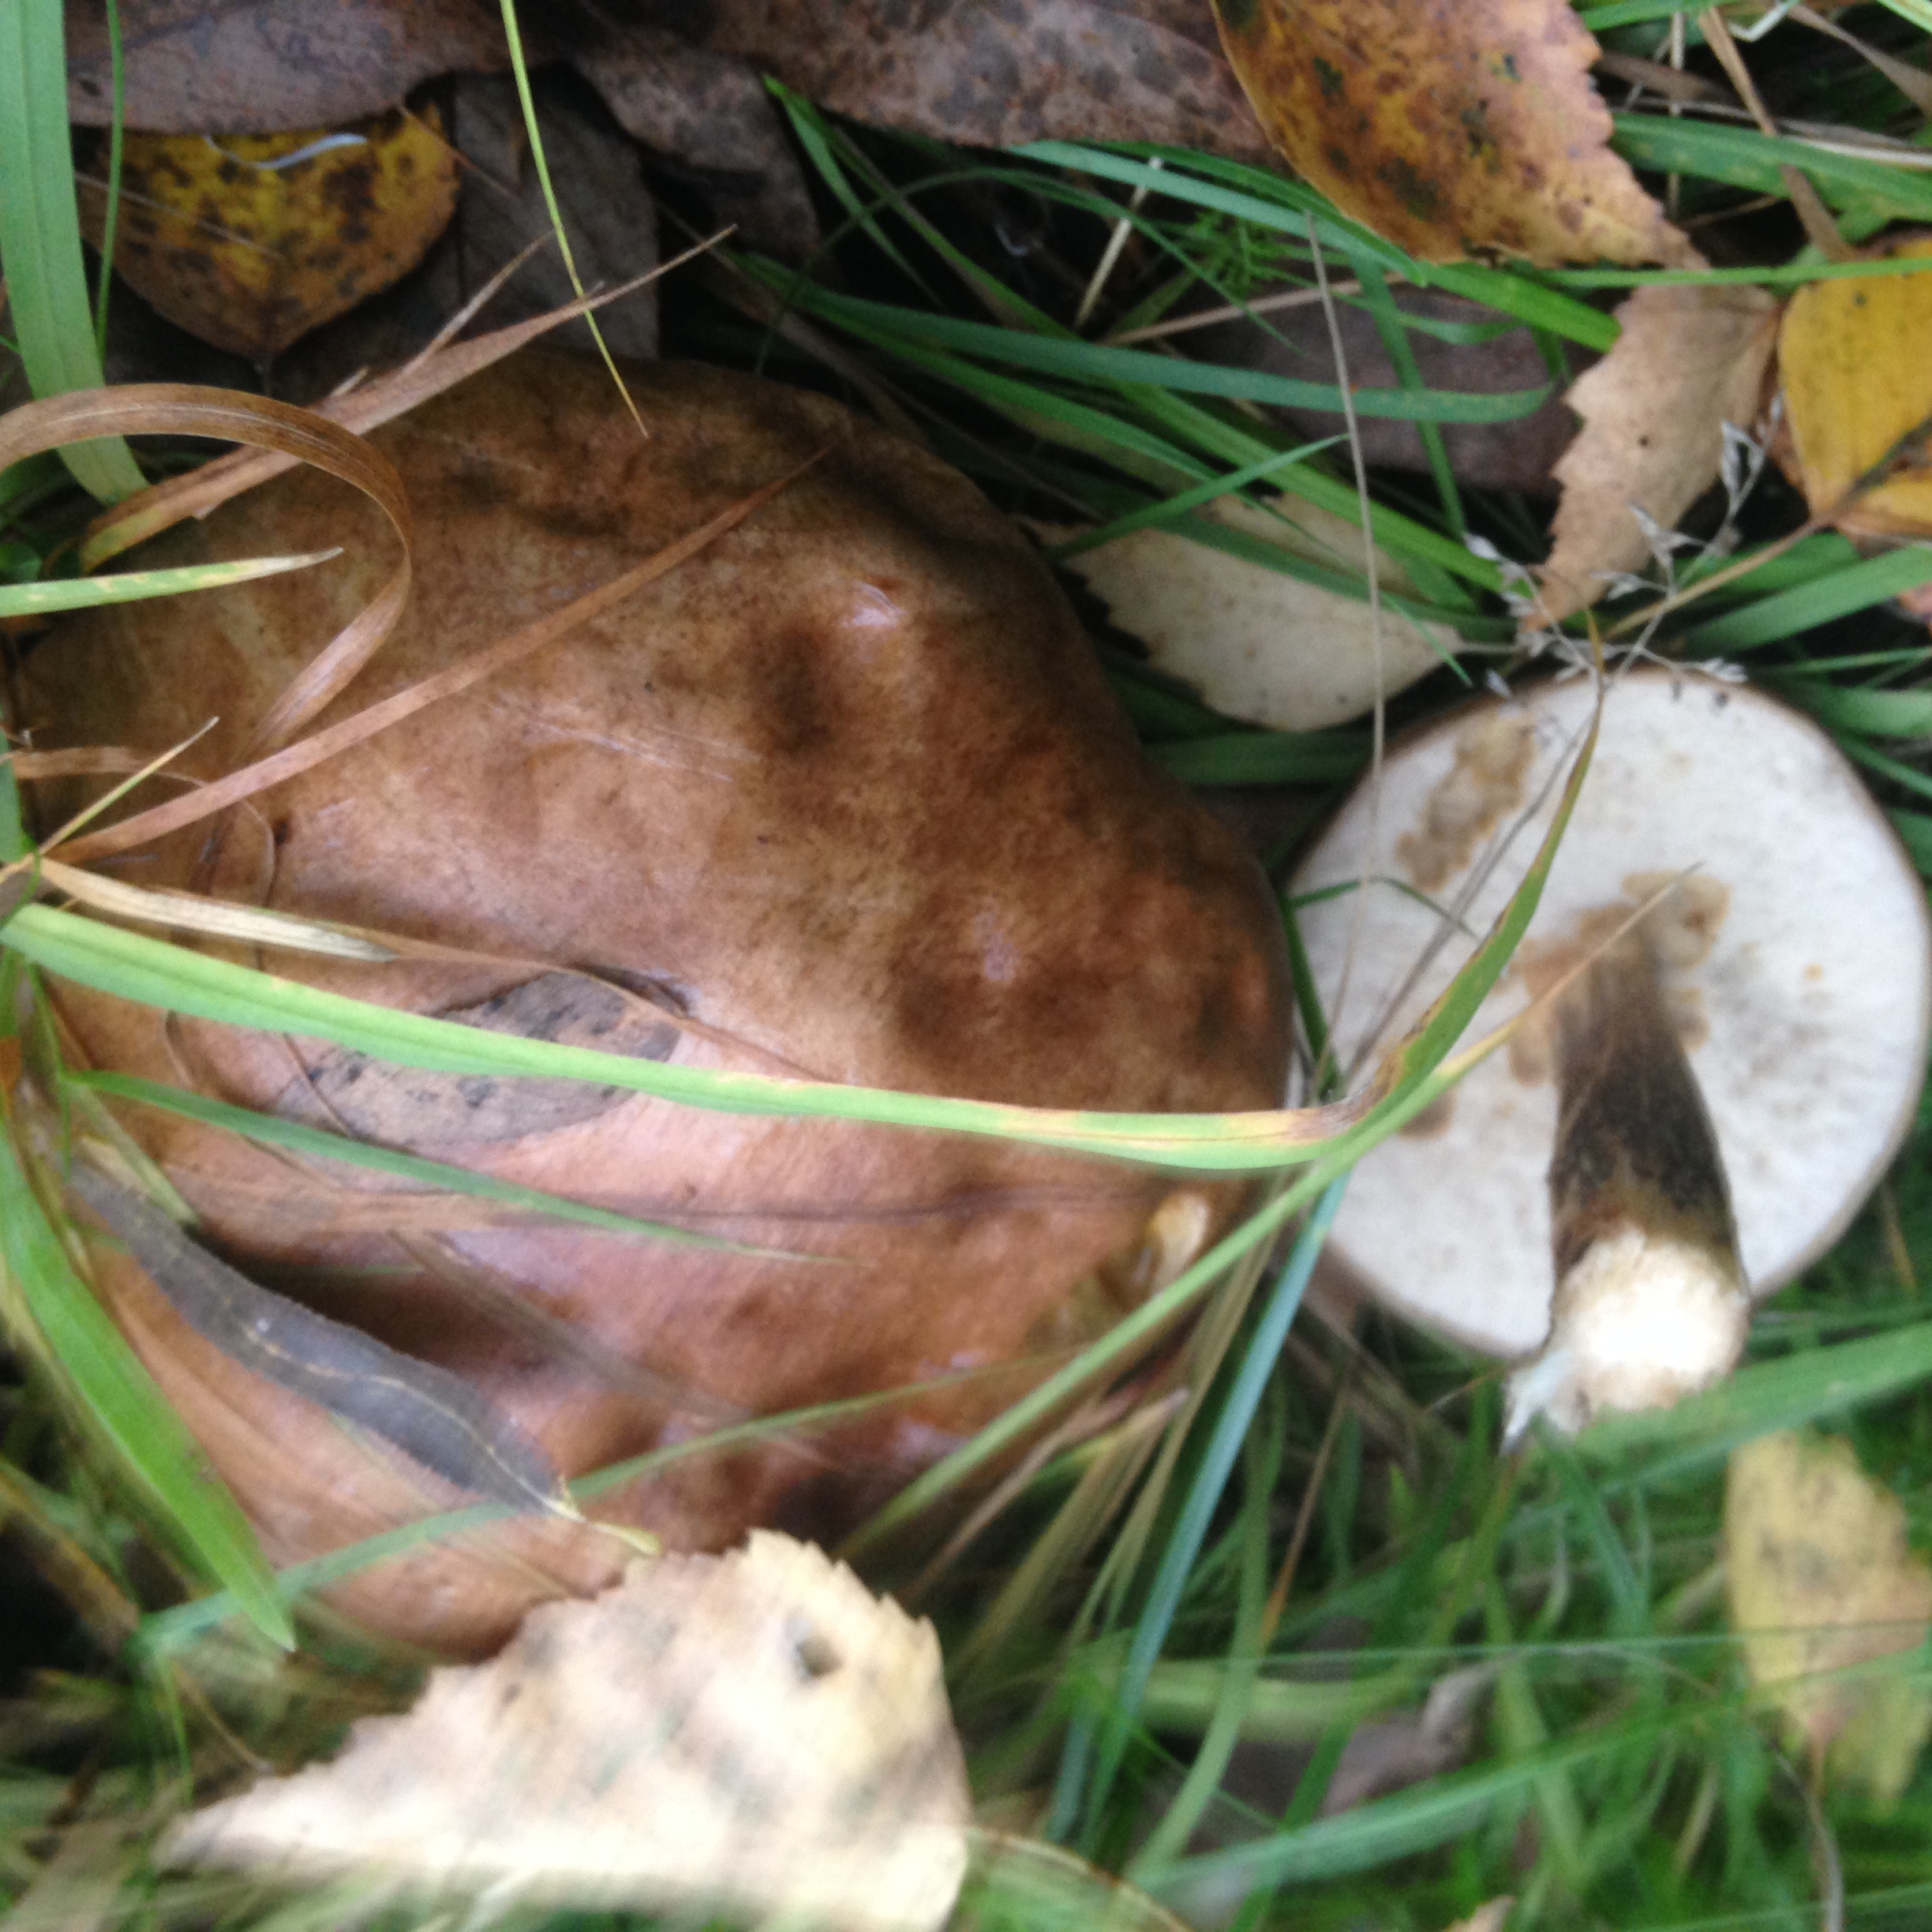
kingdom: Fungi
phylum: Basidiomycota
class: Agaricomycetes
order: Boletales
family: Boletaceae
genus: Leccinum
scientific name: Leccinum scabrum
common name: Blushing bolete
